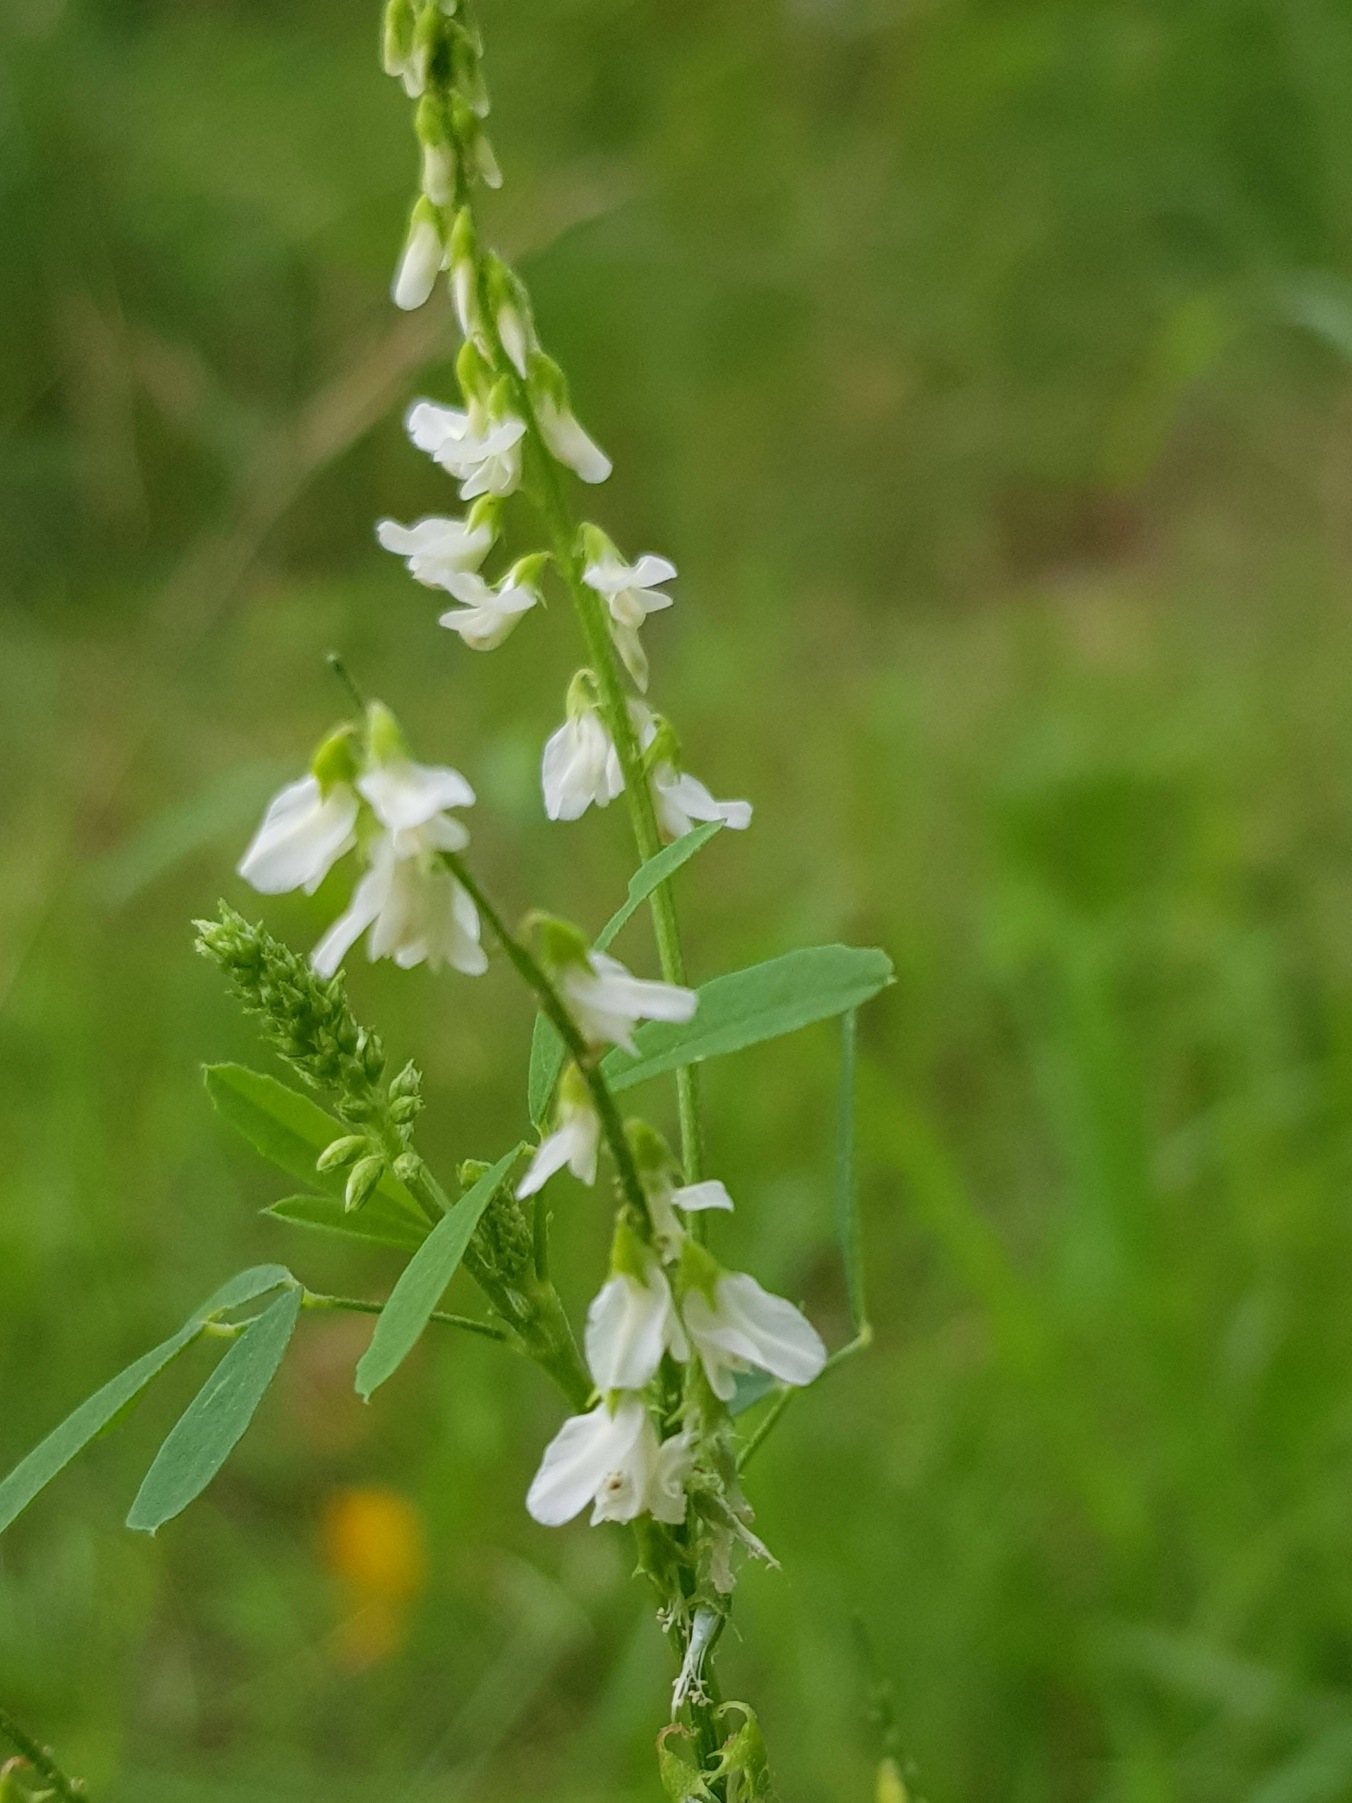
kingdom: Plantae
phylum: Tracheophyta
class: Magnoliopsida
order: Fabales
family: Fabaceae
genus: Melilotus
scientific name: Melilotus albus
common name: Hvid stenkløver
